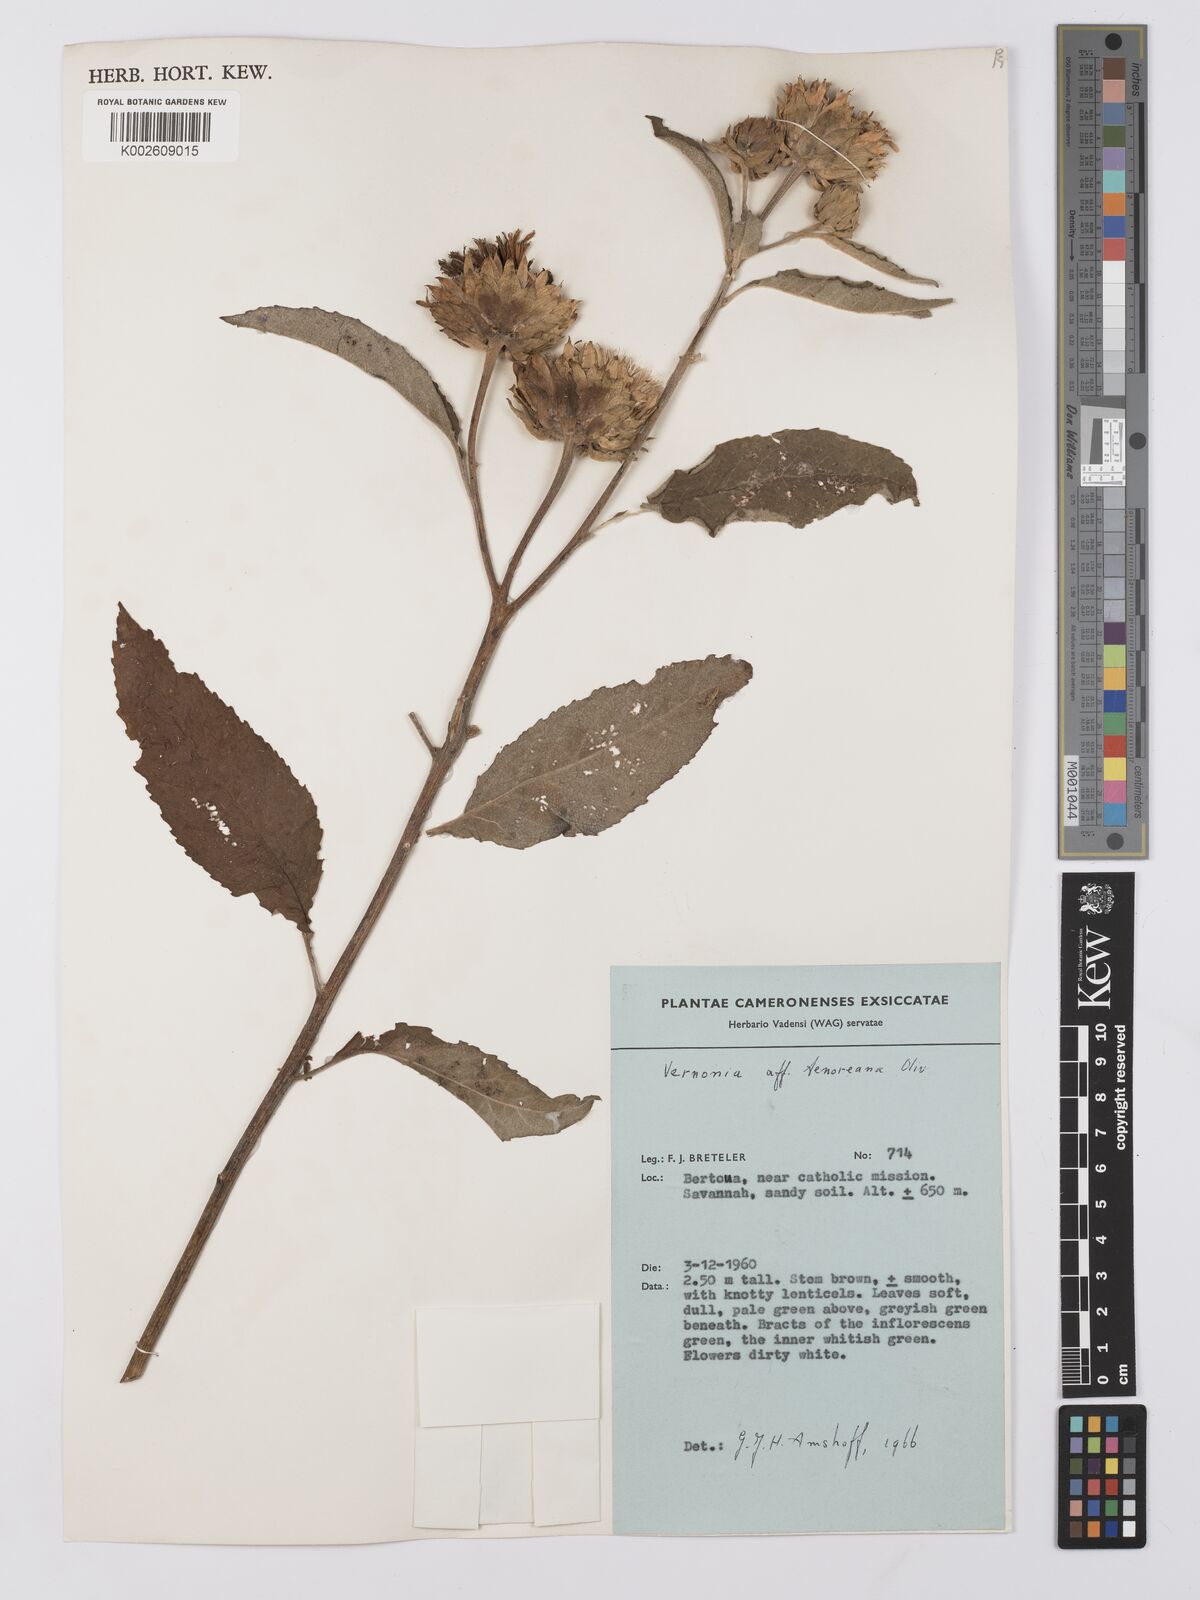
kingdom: Plantae
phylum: Tracheophyta
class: Magnoliopsida
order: Asterales
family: Asteraceae
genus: Baccharoides
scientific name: Baccharoides adoensis
